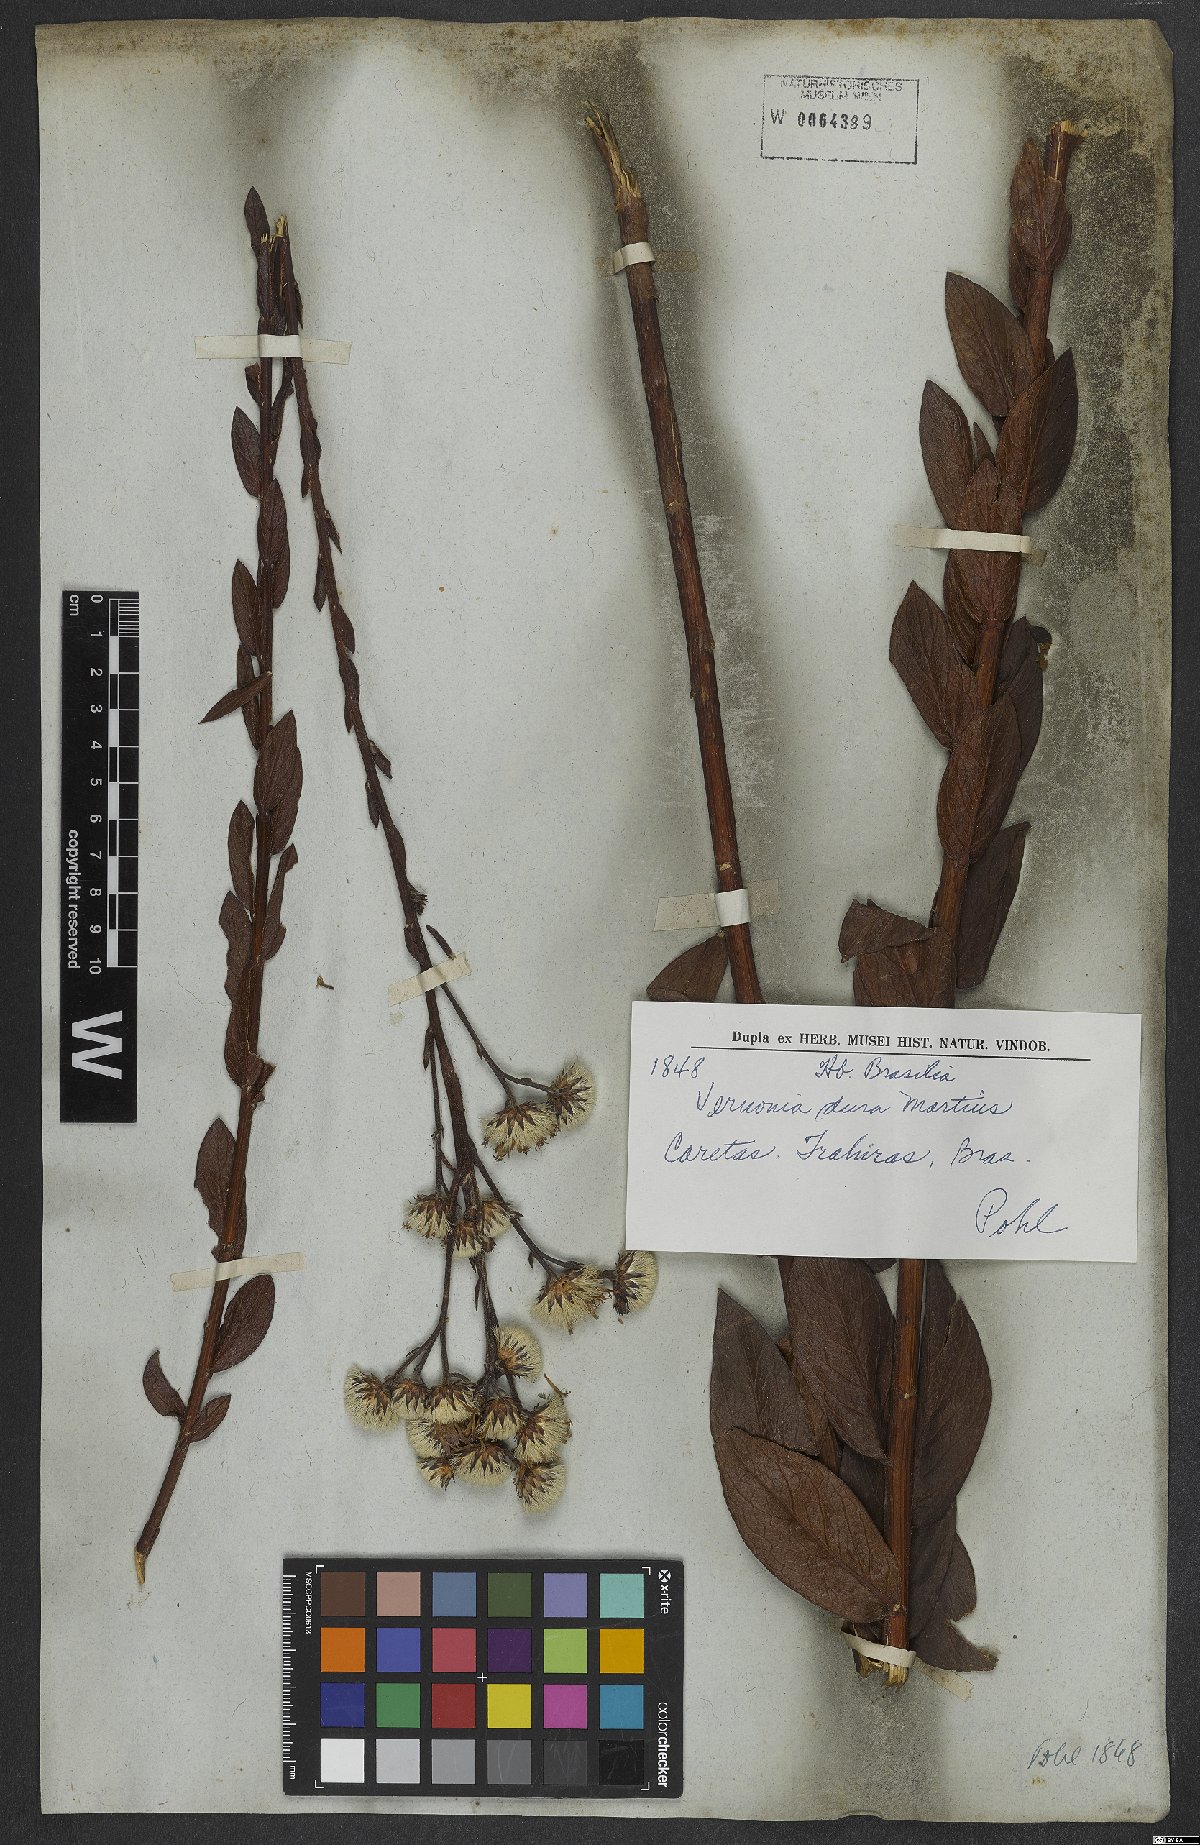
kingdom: Plantae
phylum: Tracheophyta
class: Magnoliopsida
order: Asterales
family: Asteraceae
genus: Lessingianthus
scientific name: Lessingianthus durus
